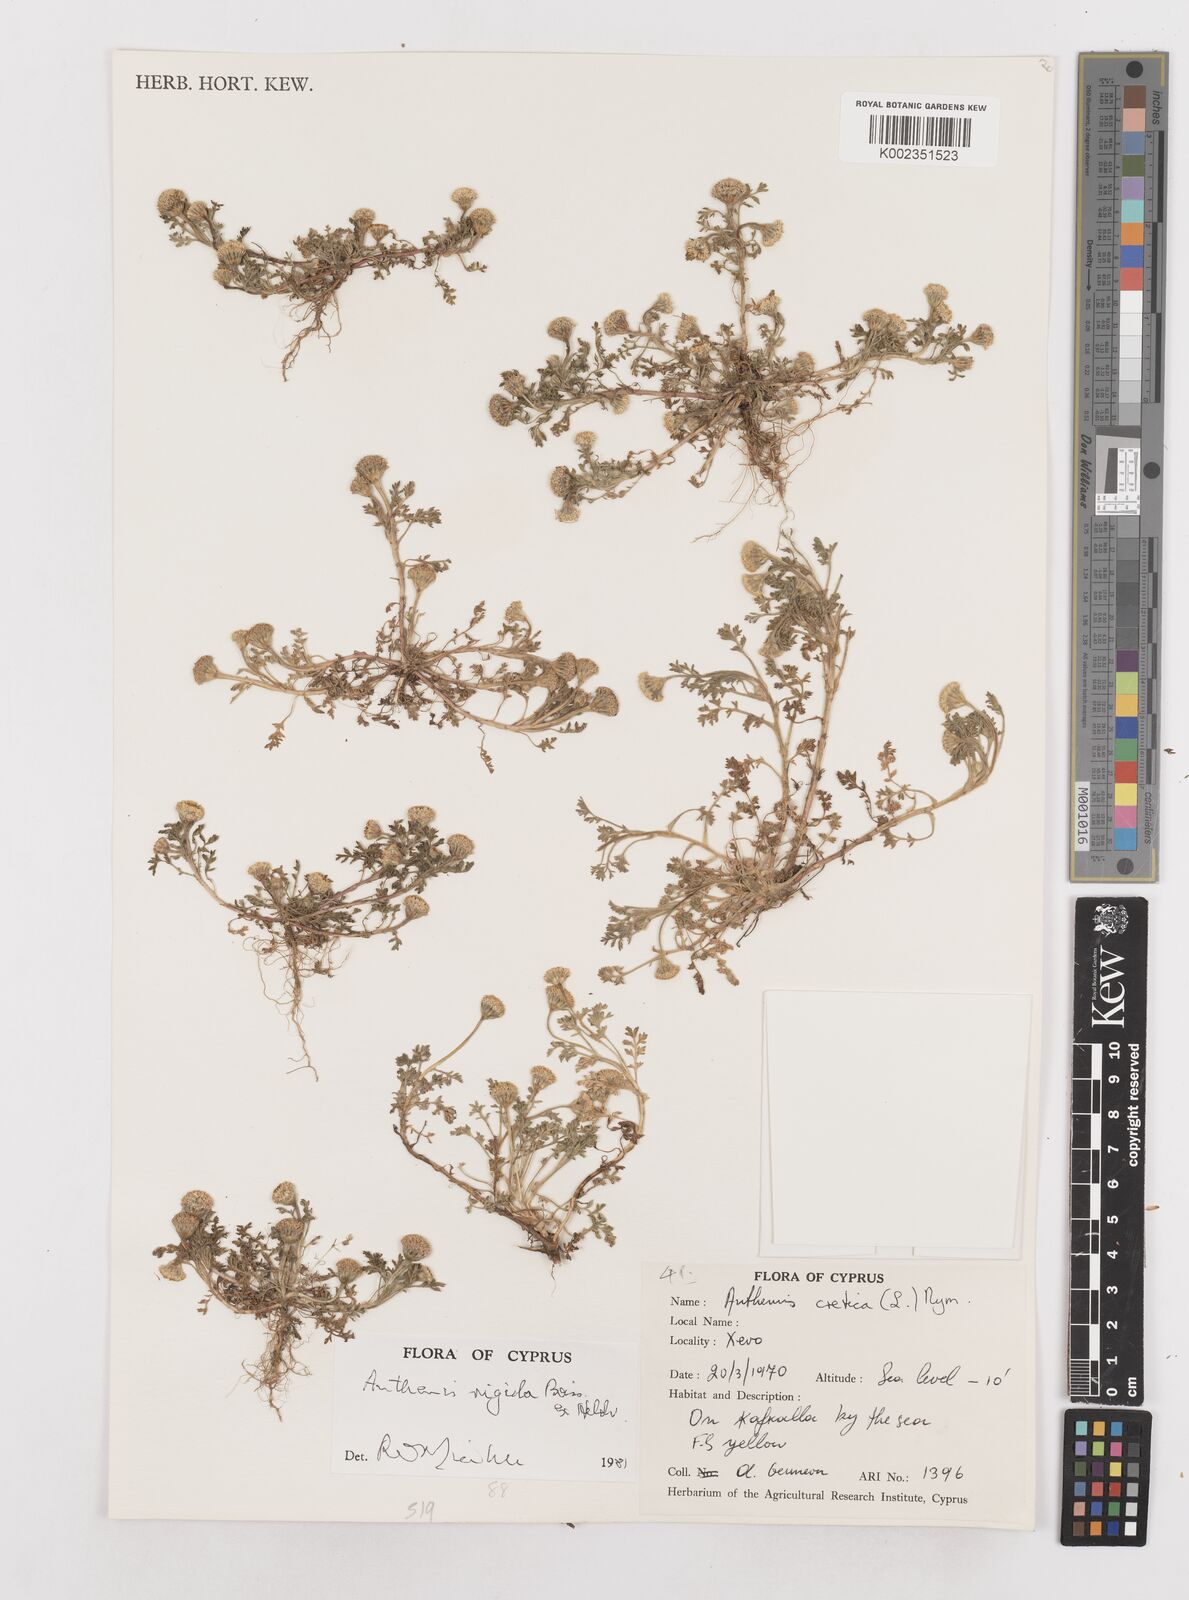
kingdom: Plantae
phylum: Tracheophyta
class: Magnoliopsida
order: Asterales
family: Asteraceae
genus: Anthemis
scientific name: Anthemis rigida
